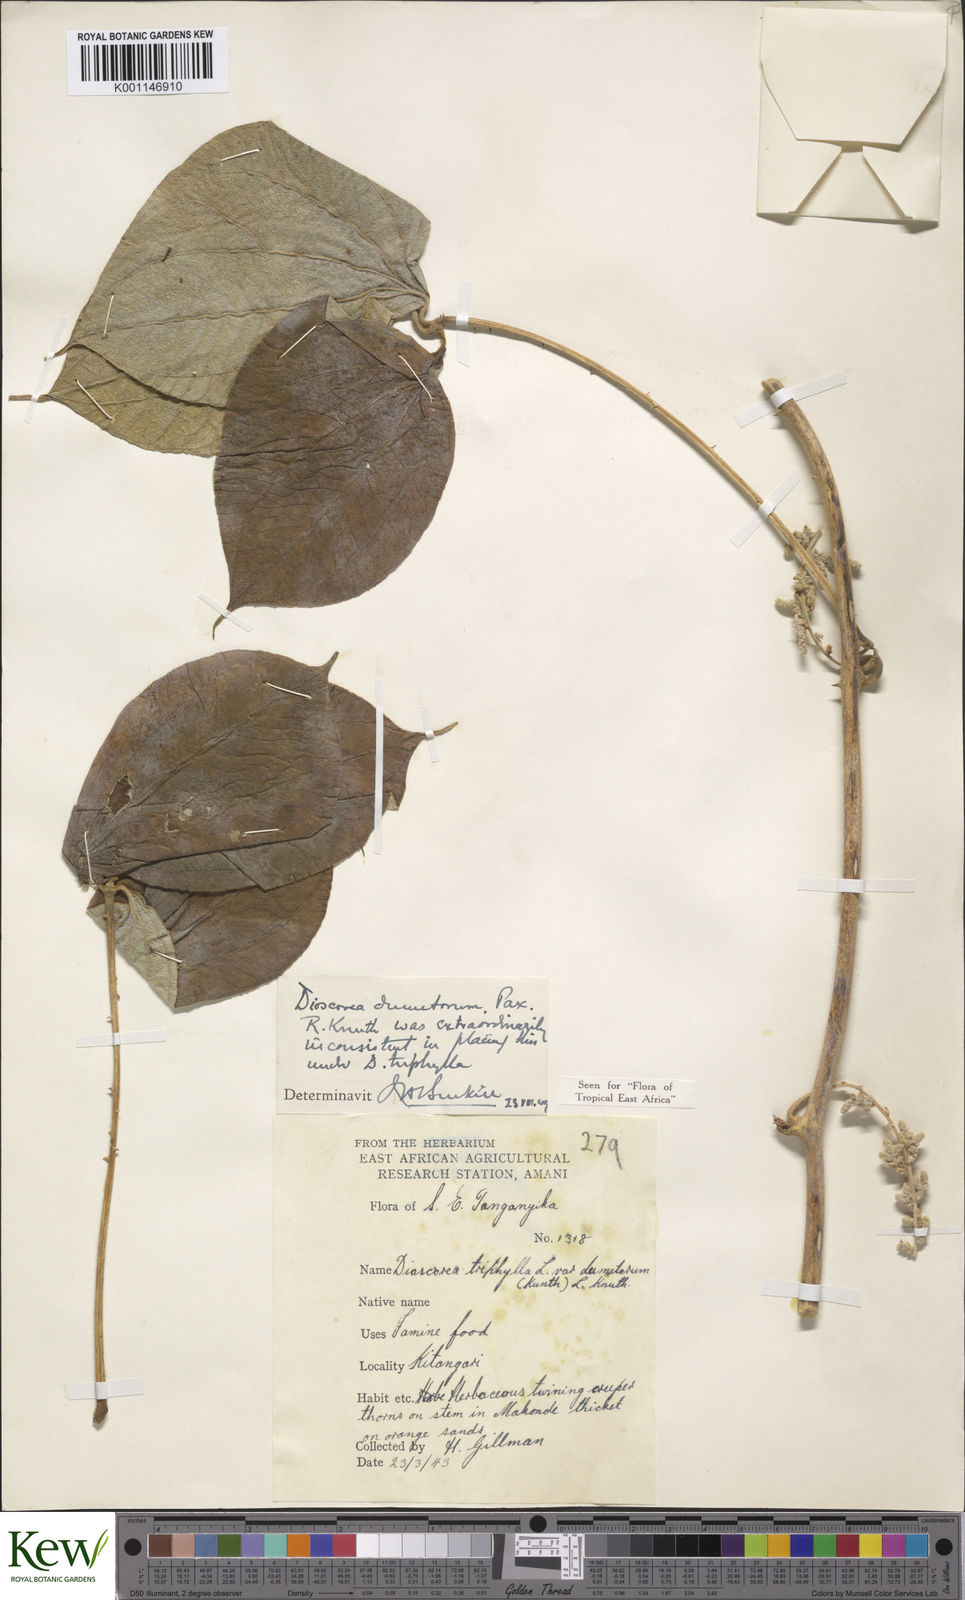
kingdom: Plantae
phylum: Tracheophyta
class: Liliopsida
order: Dioscoreales
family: Dioscoreaceae
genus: Dioscorea
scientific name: Dioscorea dumetorum
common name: African bitter yam
